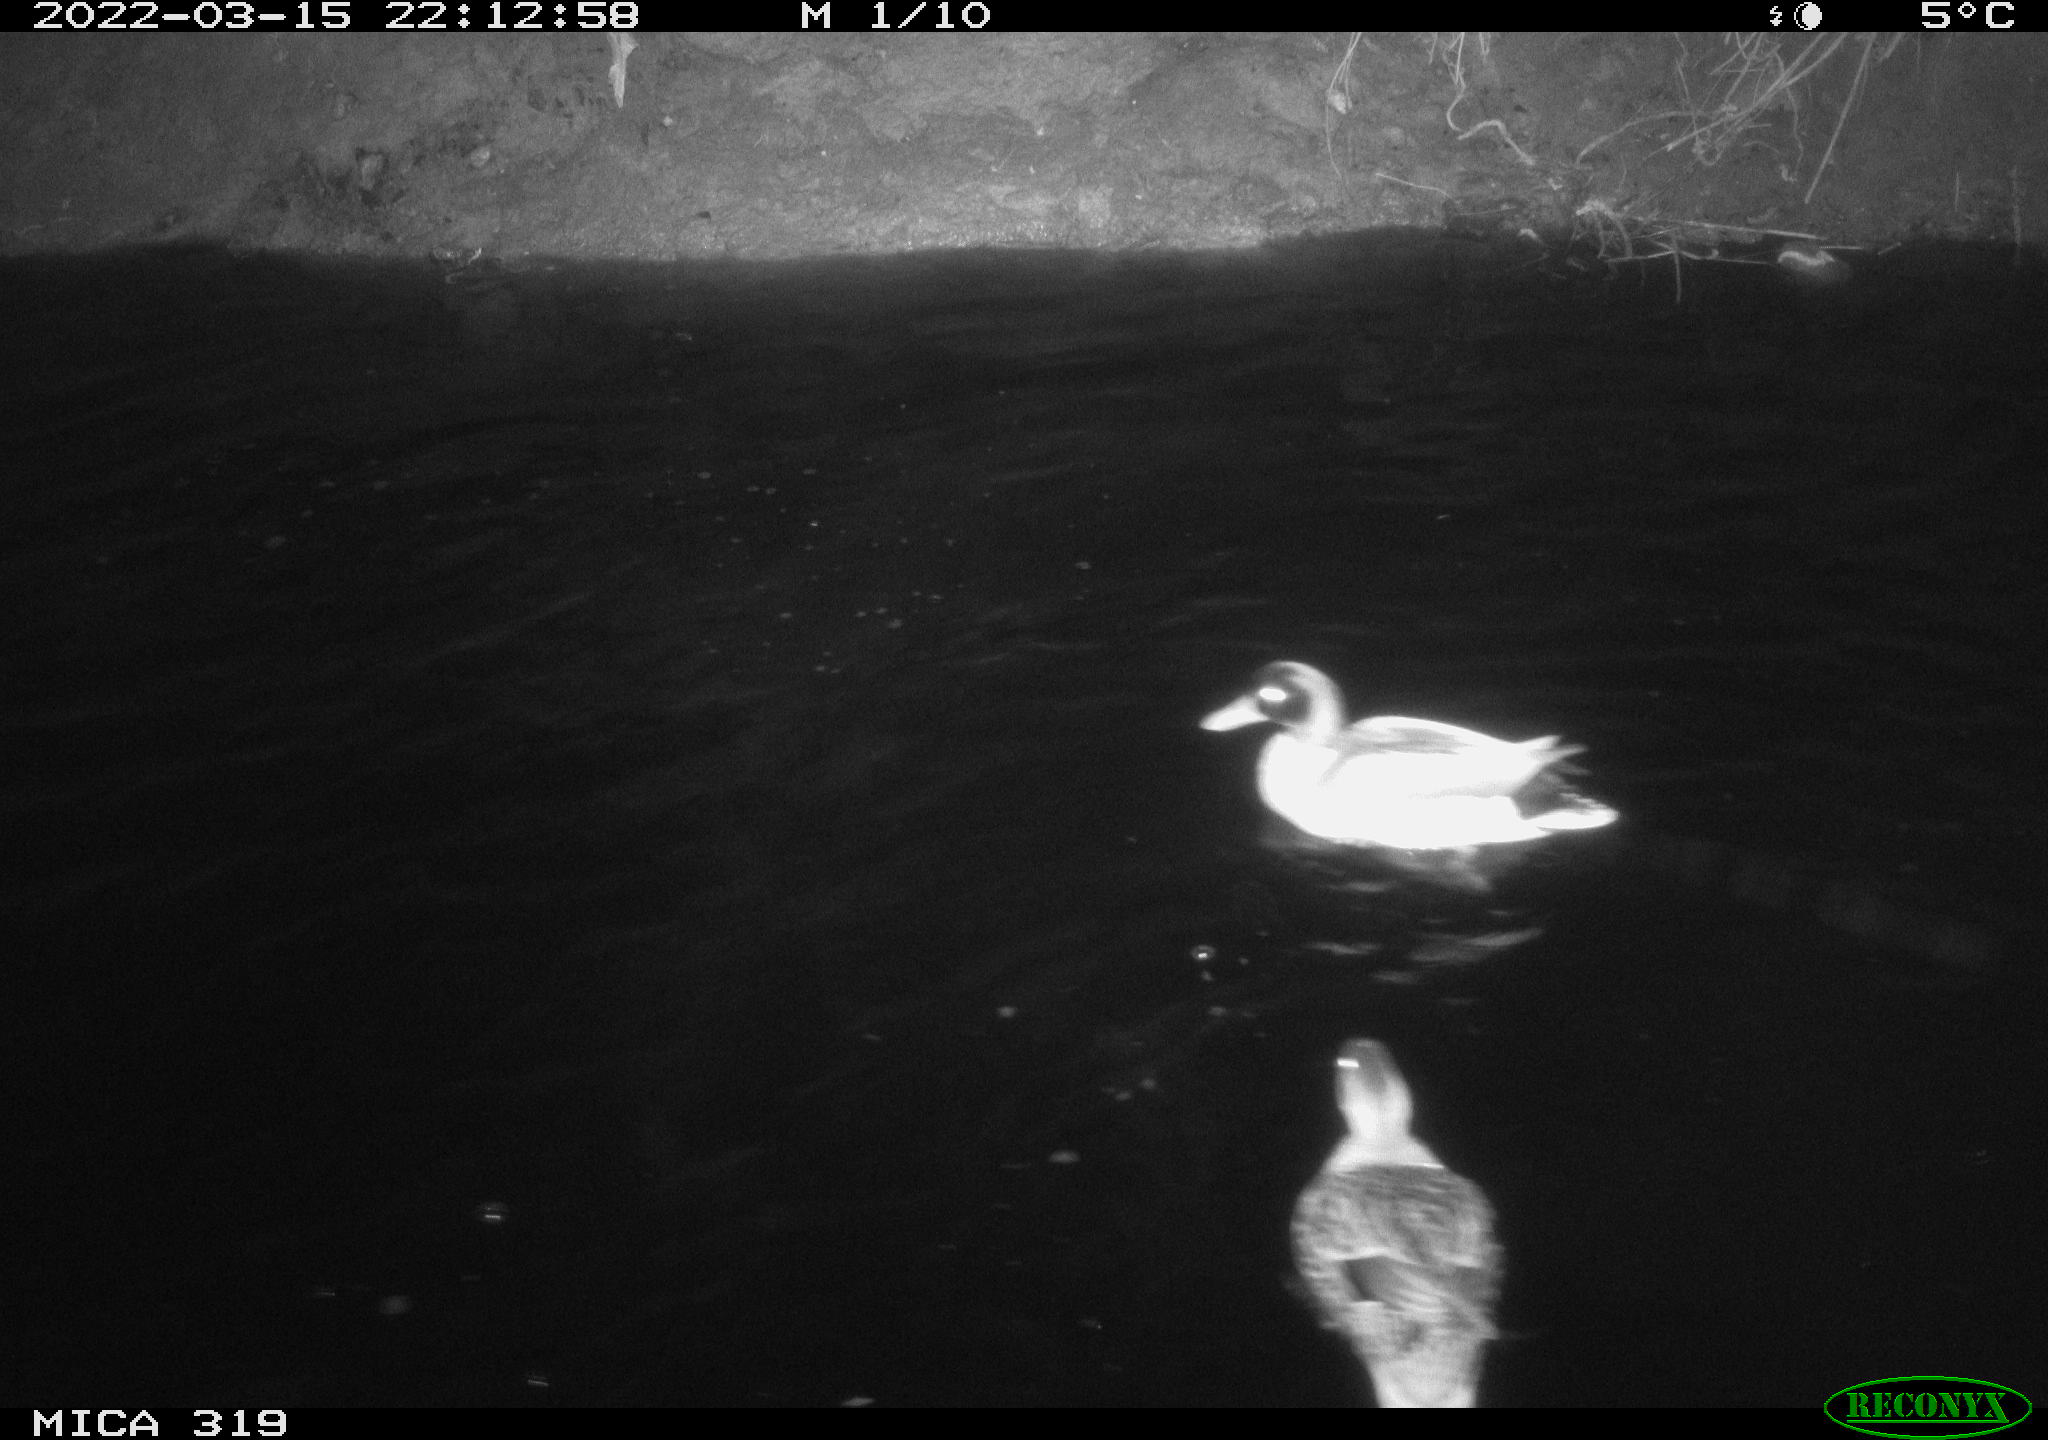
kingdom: Animalia
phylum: Chordata
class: Aves
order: Anseriformes
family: Anatidae
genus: Anas
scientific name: Anas platyrhynchos
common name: Mallard
